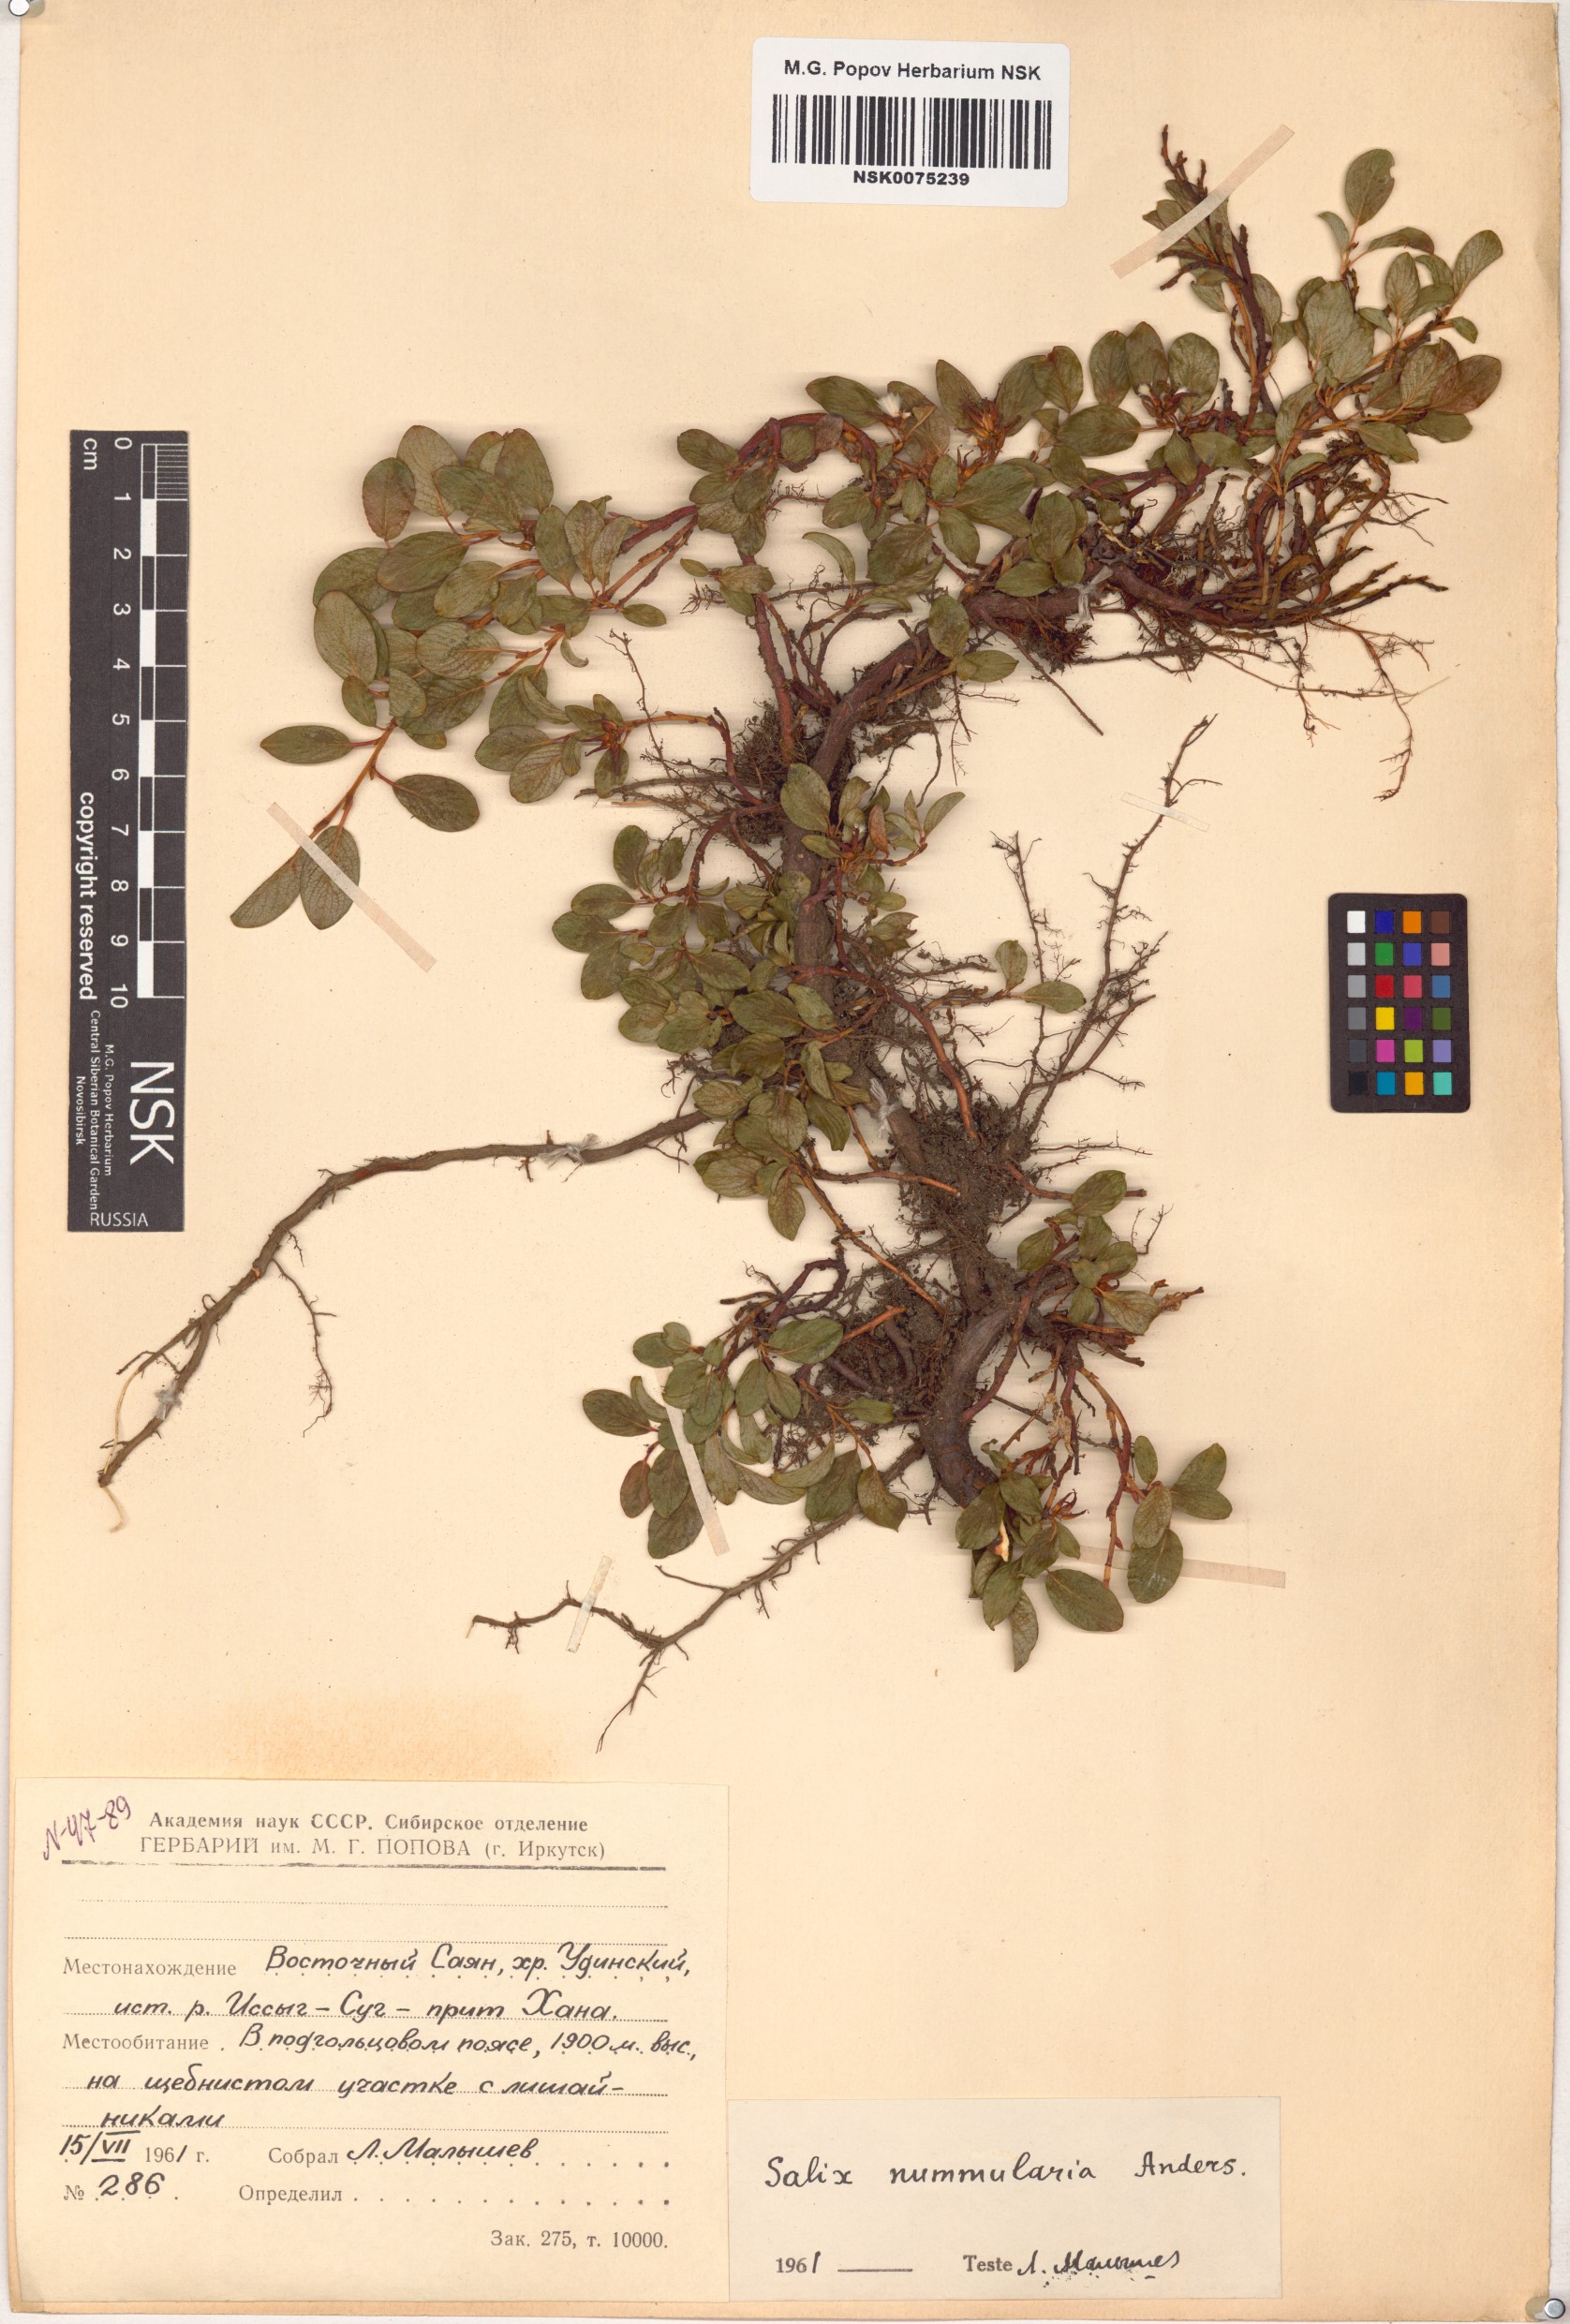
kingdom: Plantae
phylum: Tracheophyta
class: Magnoliopsida
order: Malpighiales
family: Salicaceae
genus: Salix
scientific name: Salix nummularia
